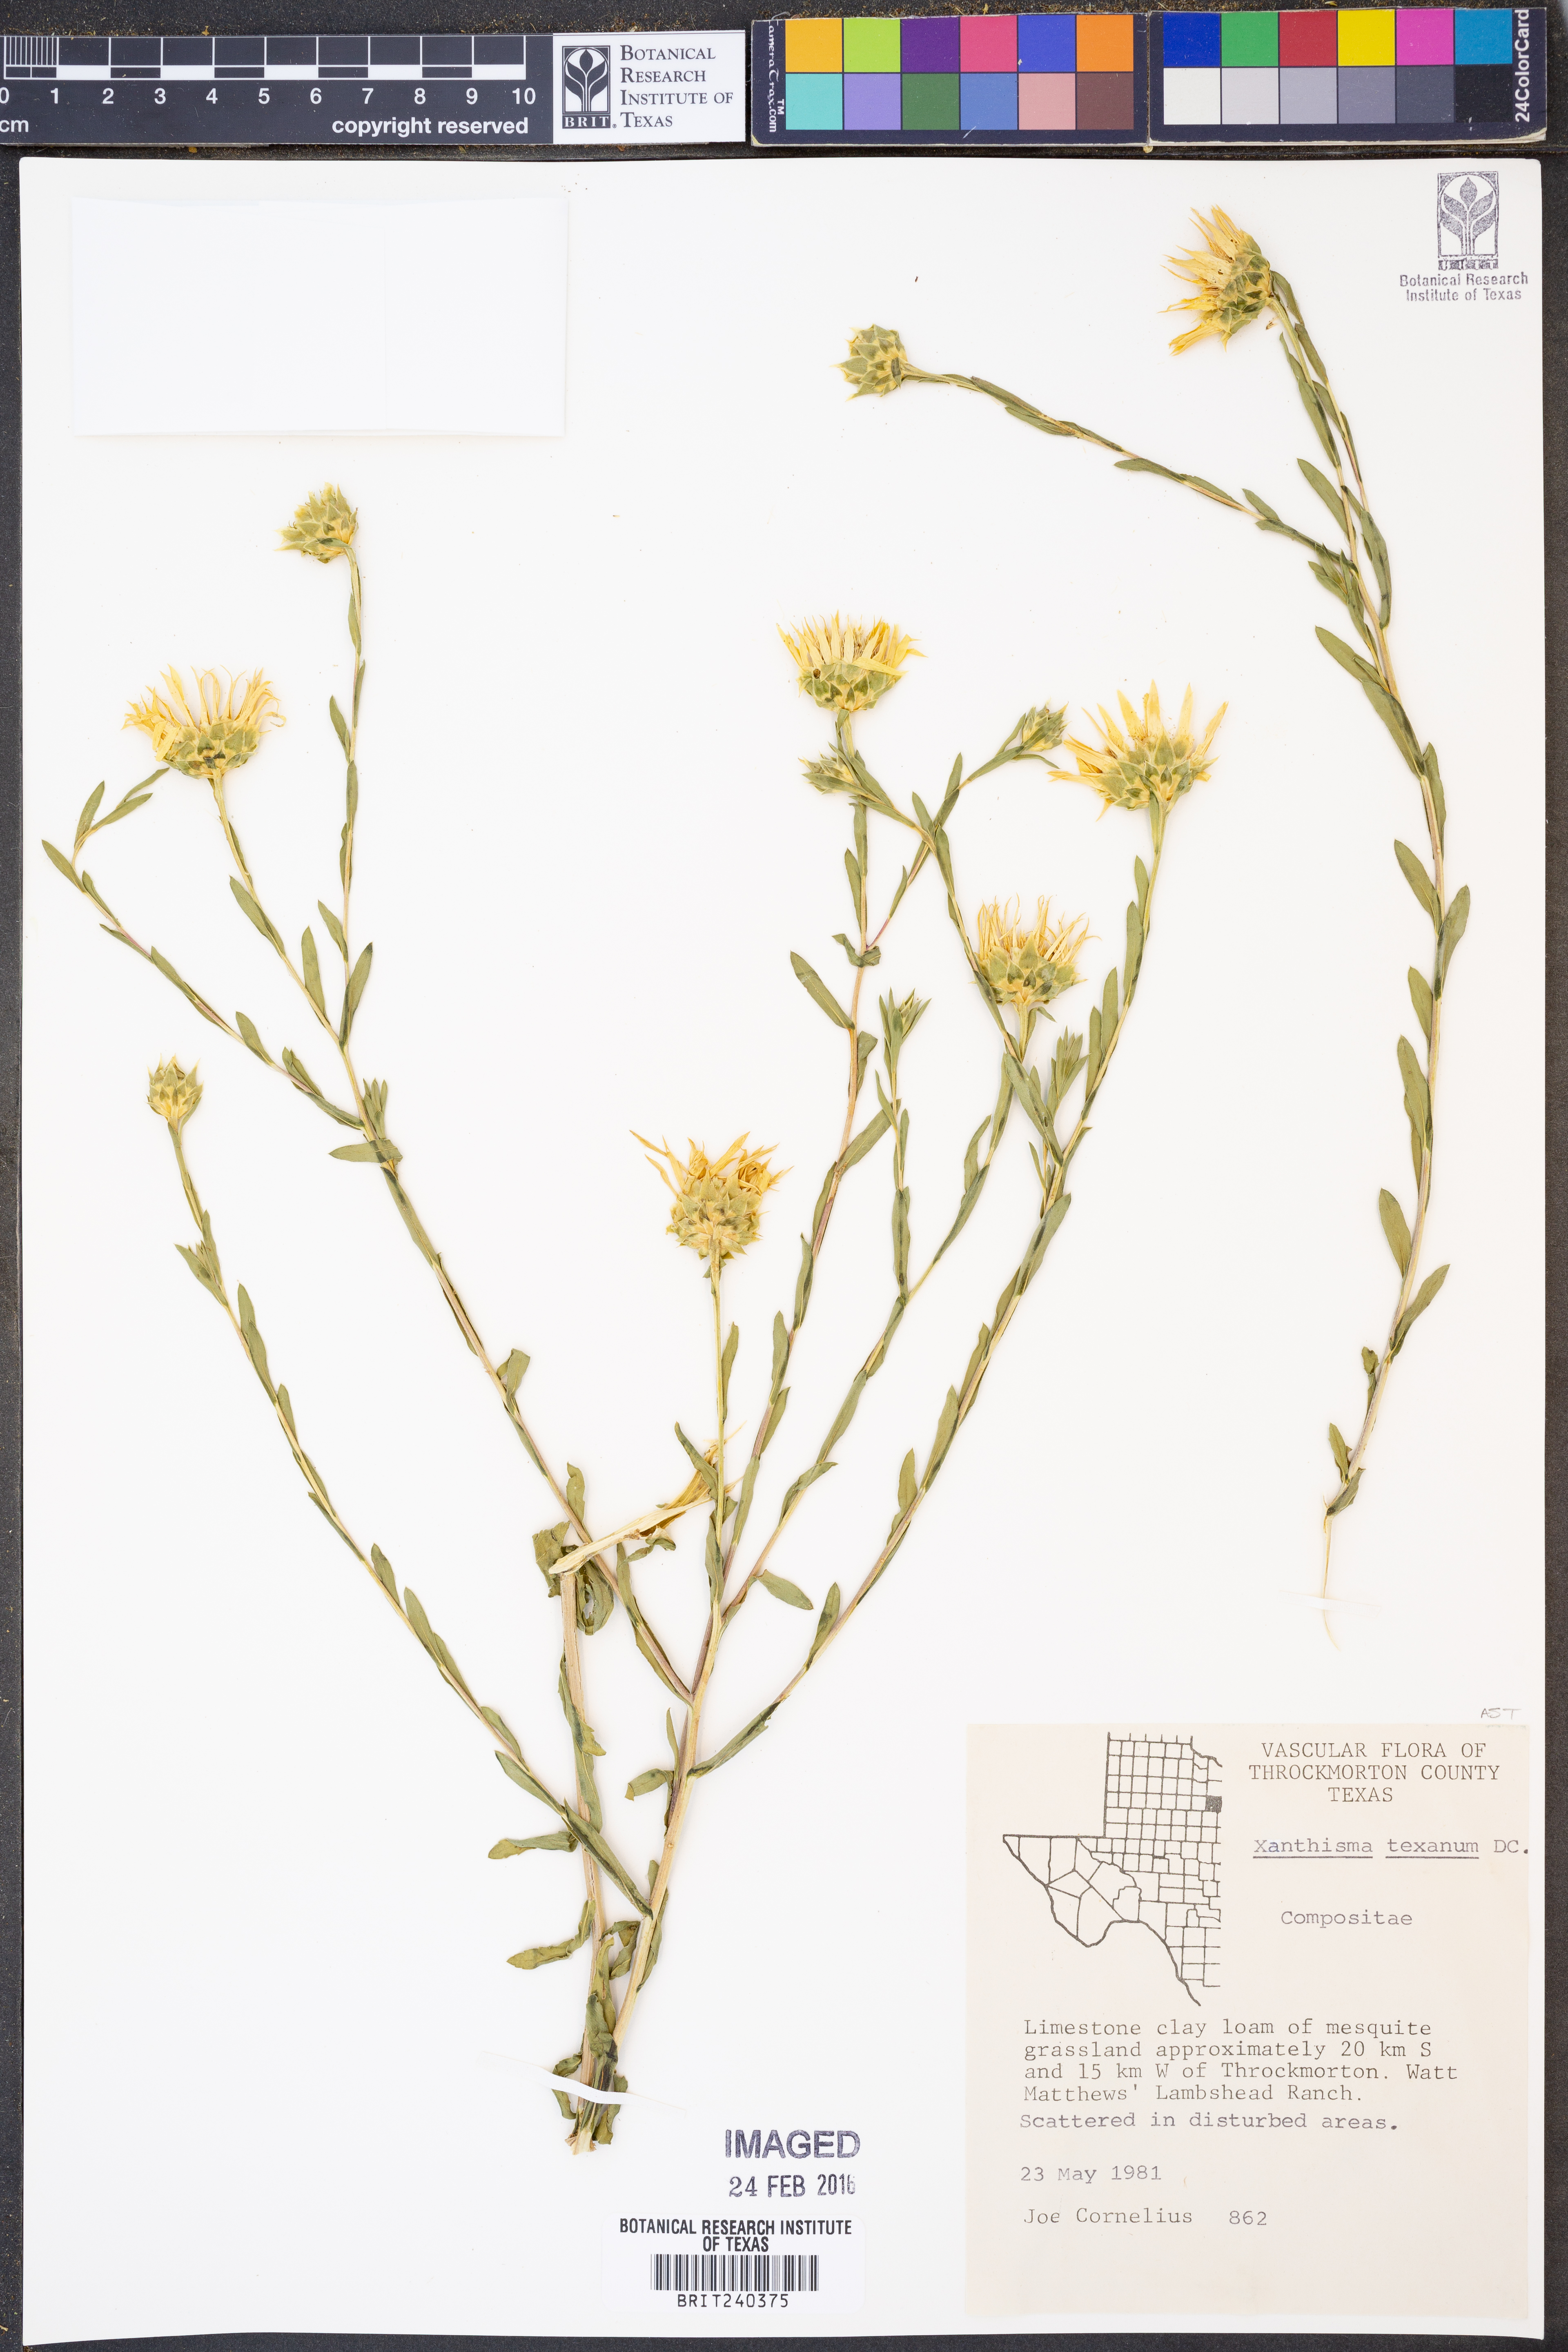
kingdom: Plantae
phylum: Tracheophyta
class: Magnoliopsida
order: Asterales
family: Asteraceae
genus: Xanthisma
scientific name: Xanthisma texanum
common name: Texas sleepy daisy
